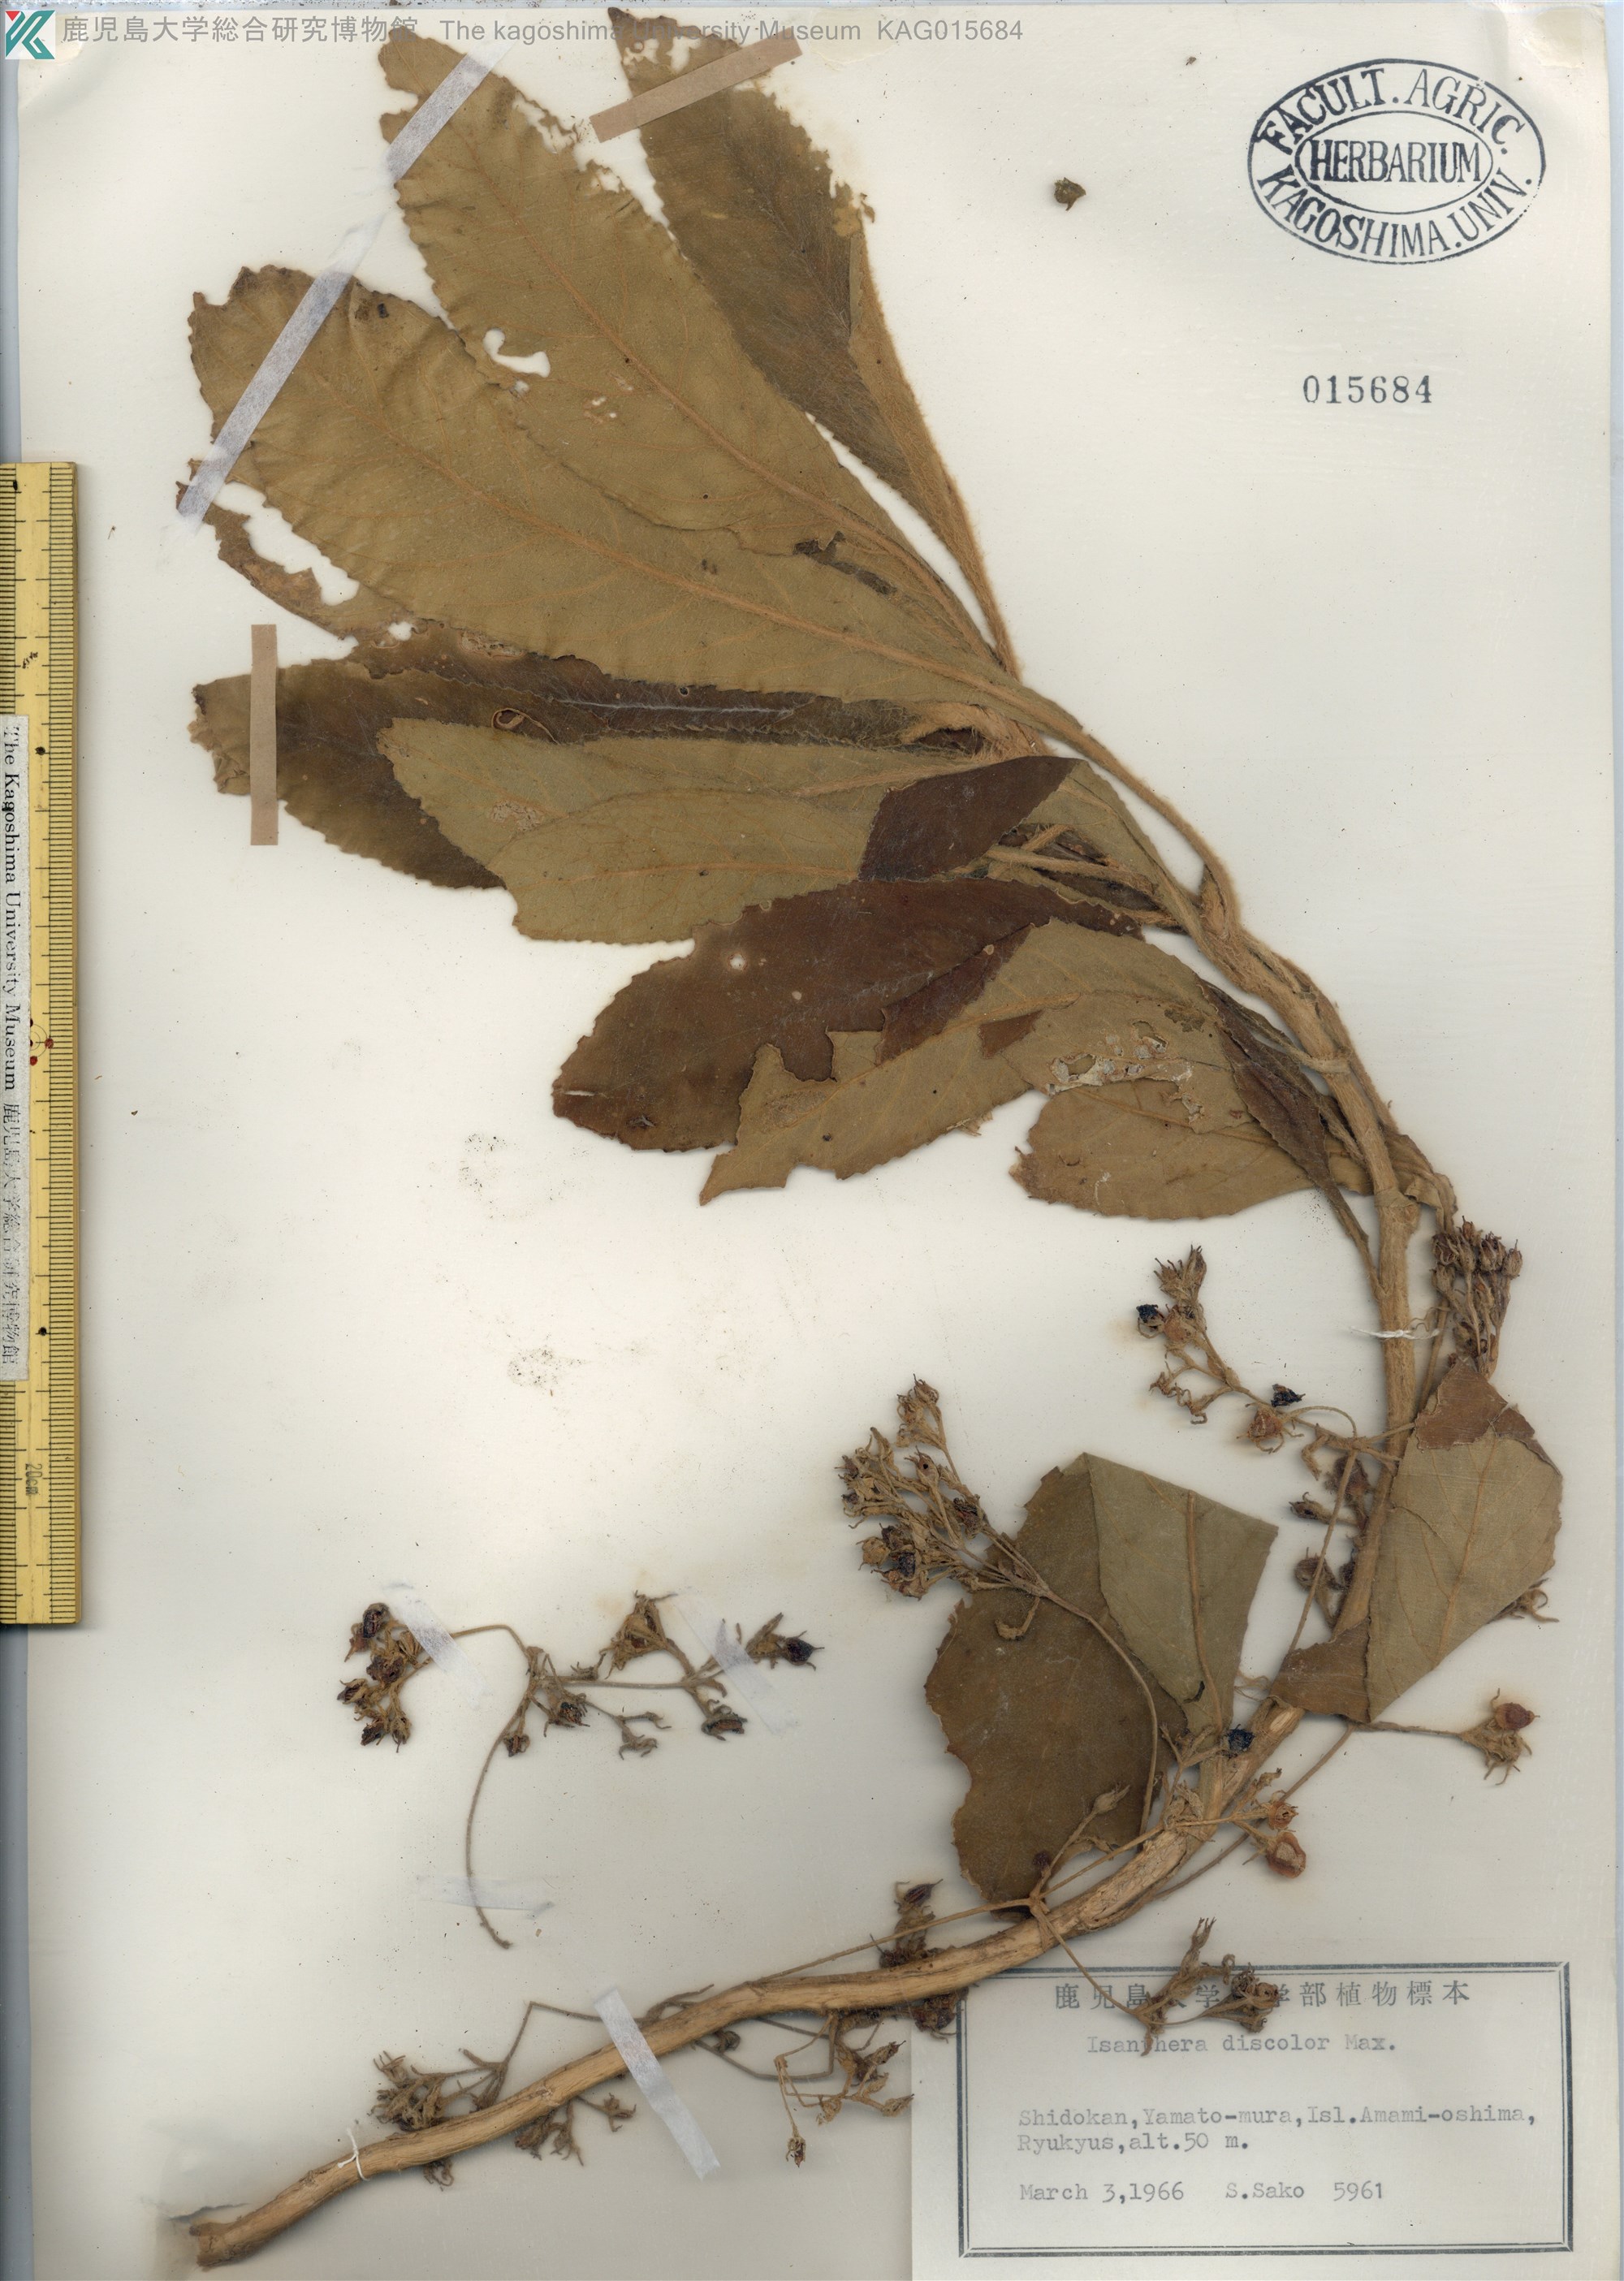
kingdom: Plantae
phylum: Tracheophyta
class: Magnoliopsida
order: Lamiales
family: Gesneriaceae
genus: Rhynchotechum
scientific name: Rhynchotechum discolor
